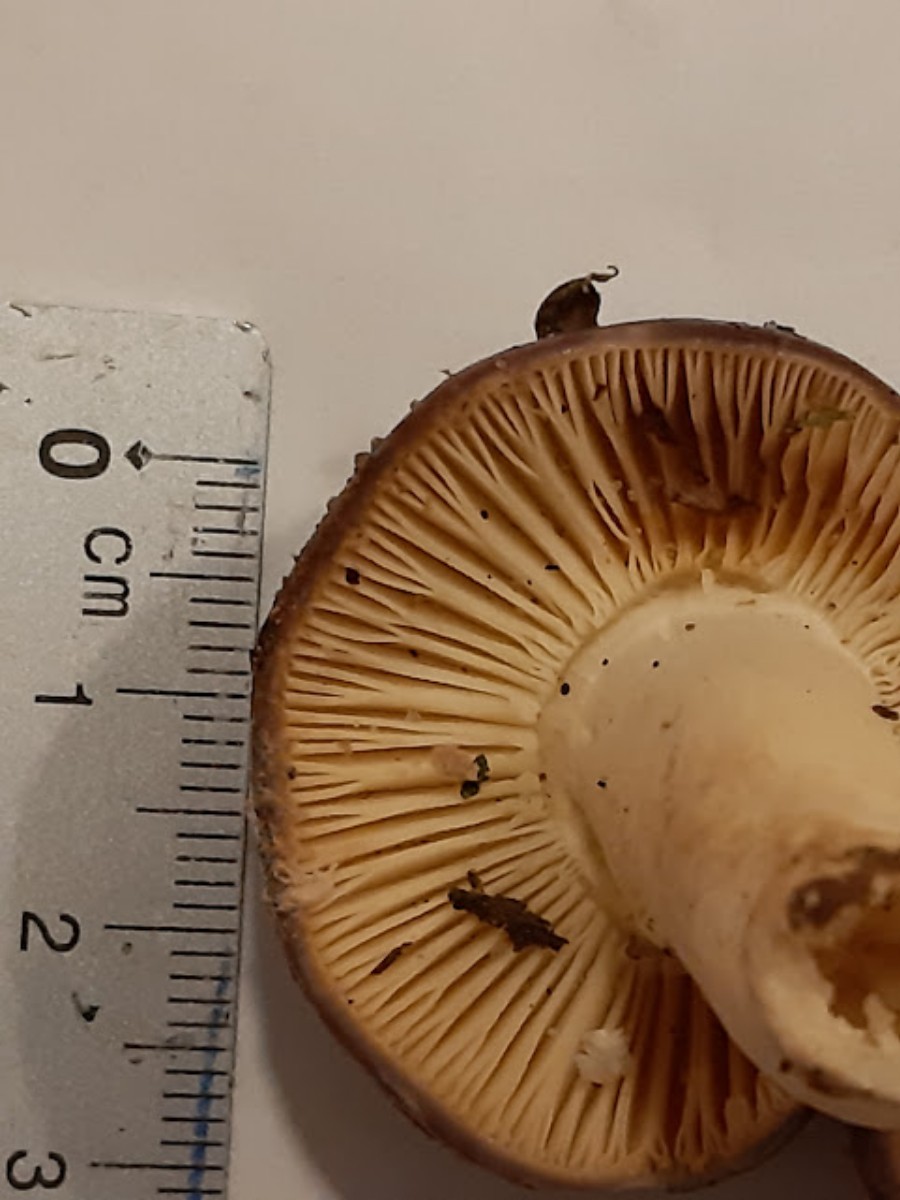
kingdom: Fungi
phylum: Basidiomycota
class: Agaricomycetes
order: Russulales
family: Russulaceae
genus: Russula
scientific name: Russula
